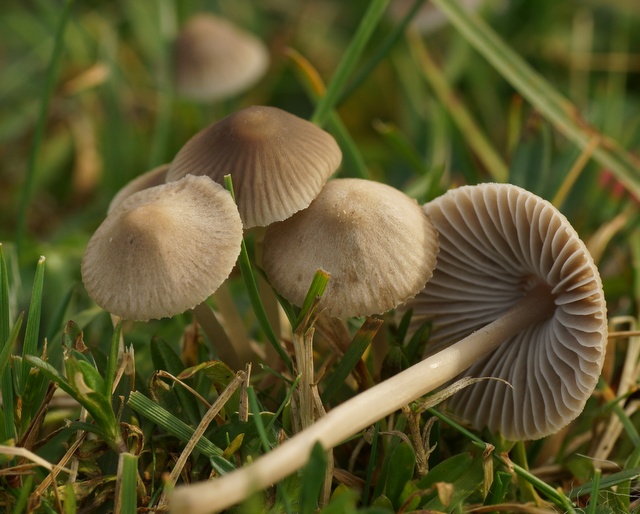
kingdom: Fungi
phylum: Basidiomycota
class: Agaricomycetes
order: Agaricales
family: Mycenaceae
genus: Mycena
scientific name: Mycena aetites
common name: plæne-huesvamp
